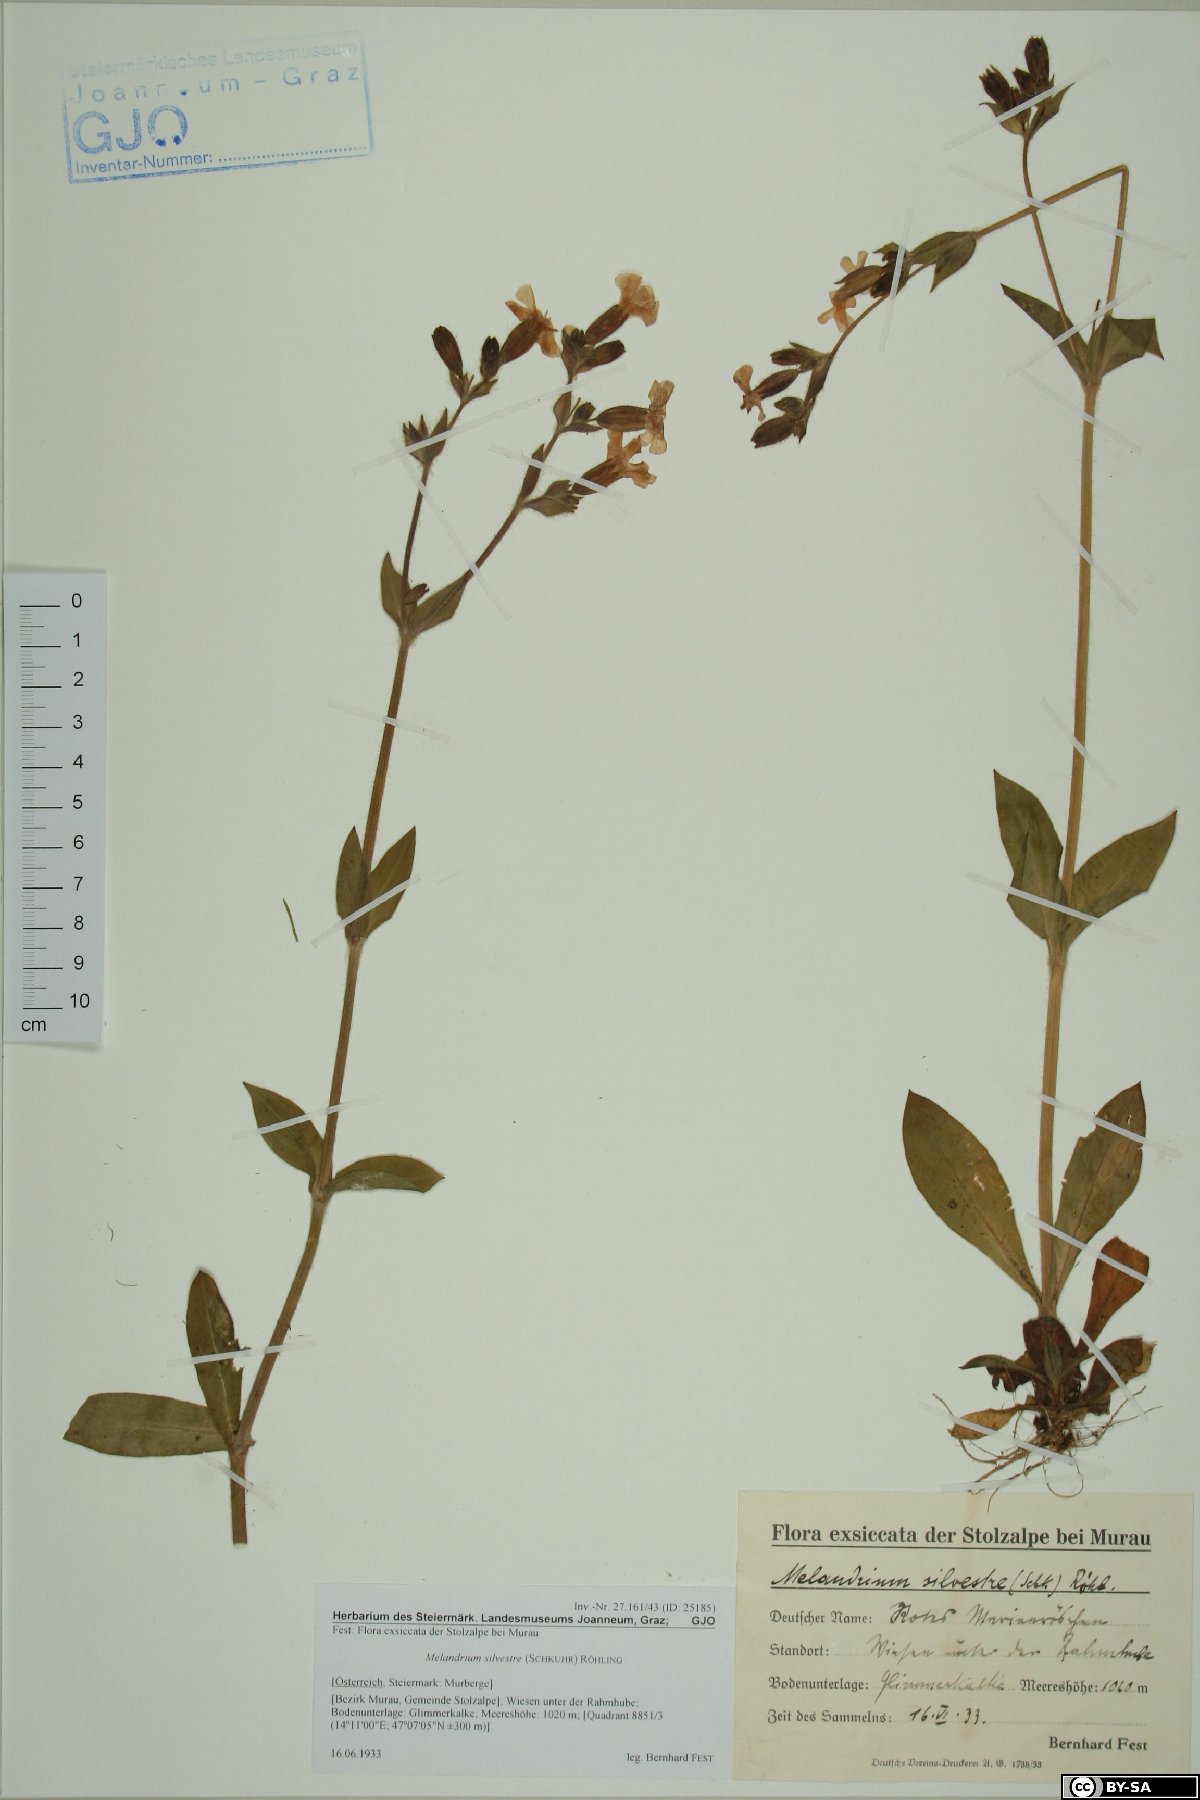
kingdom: Plantae
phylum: Tracheophyta
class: Magnoliopsida
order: Caryophyllales
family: Caryophyllaceae
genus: Silene
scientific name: Silene dioica
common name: Red campion
